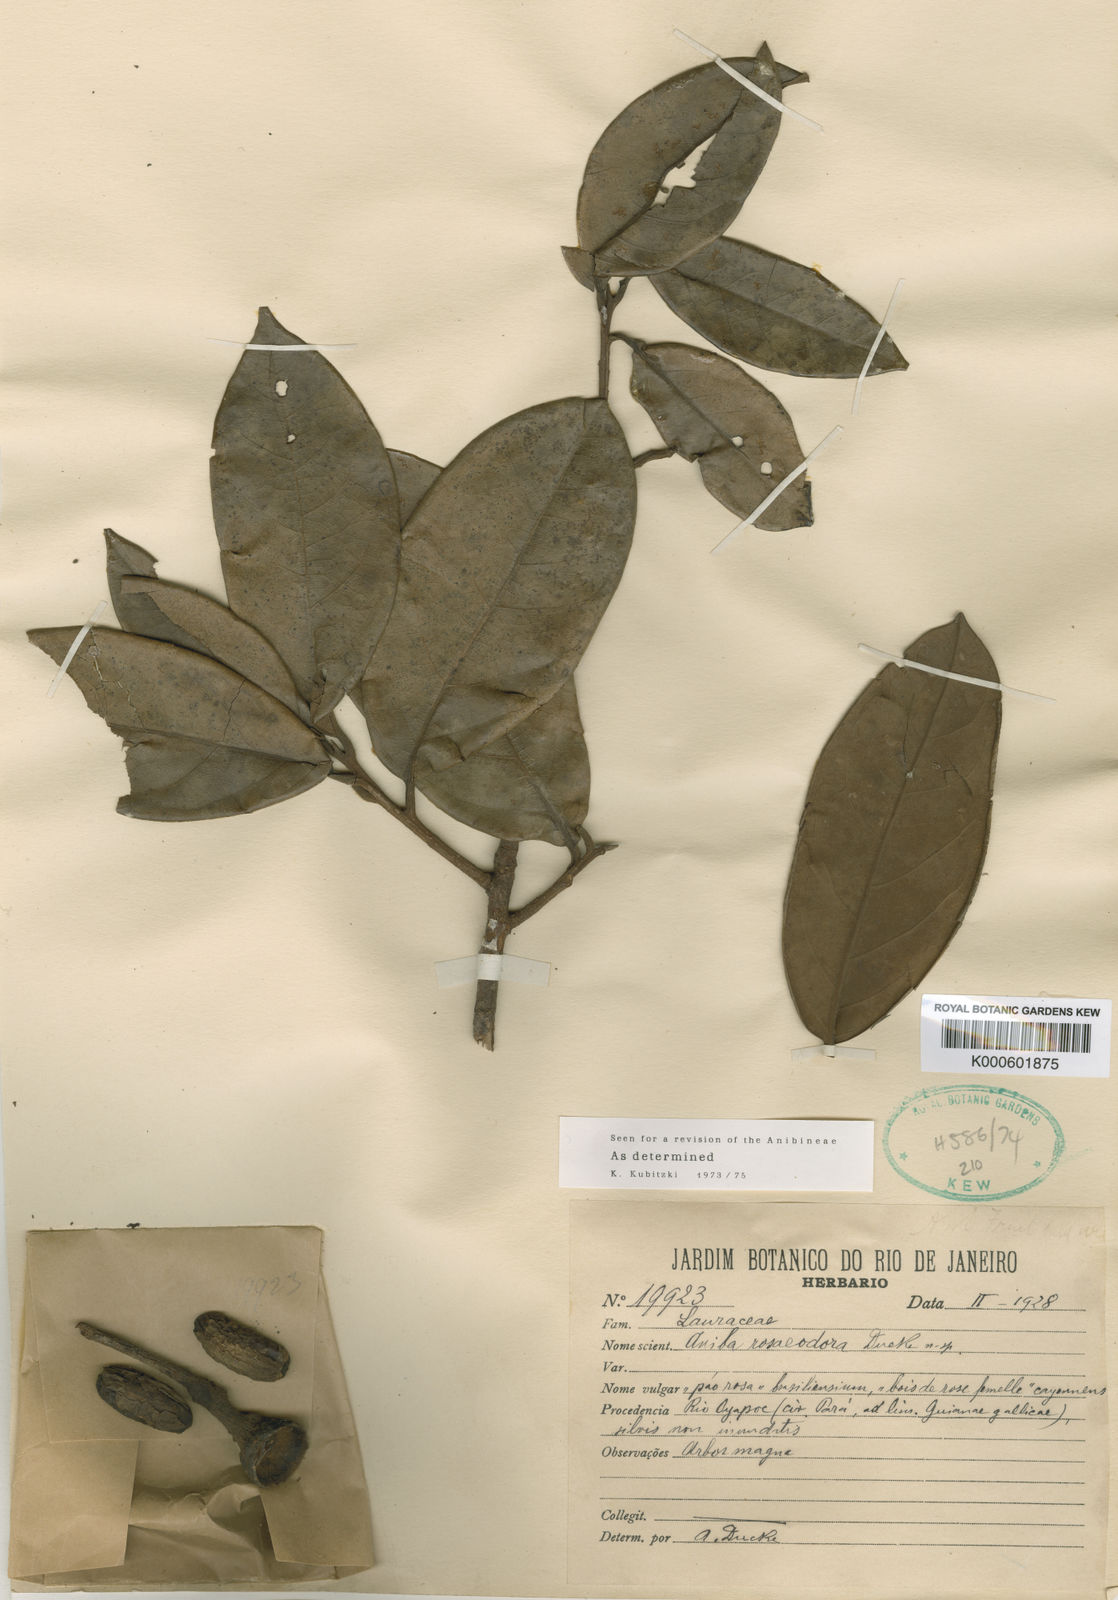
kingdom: Plantae
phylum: Tracheophyta
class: Magnoliopsida
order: Laurales
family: Lauraceae
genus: Aniba
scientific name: Aniba
